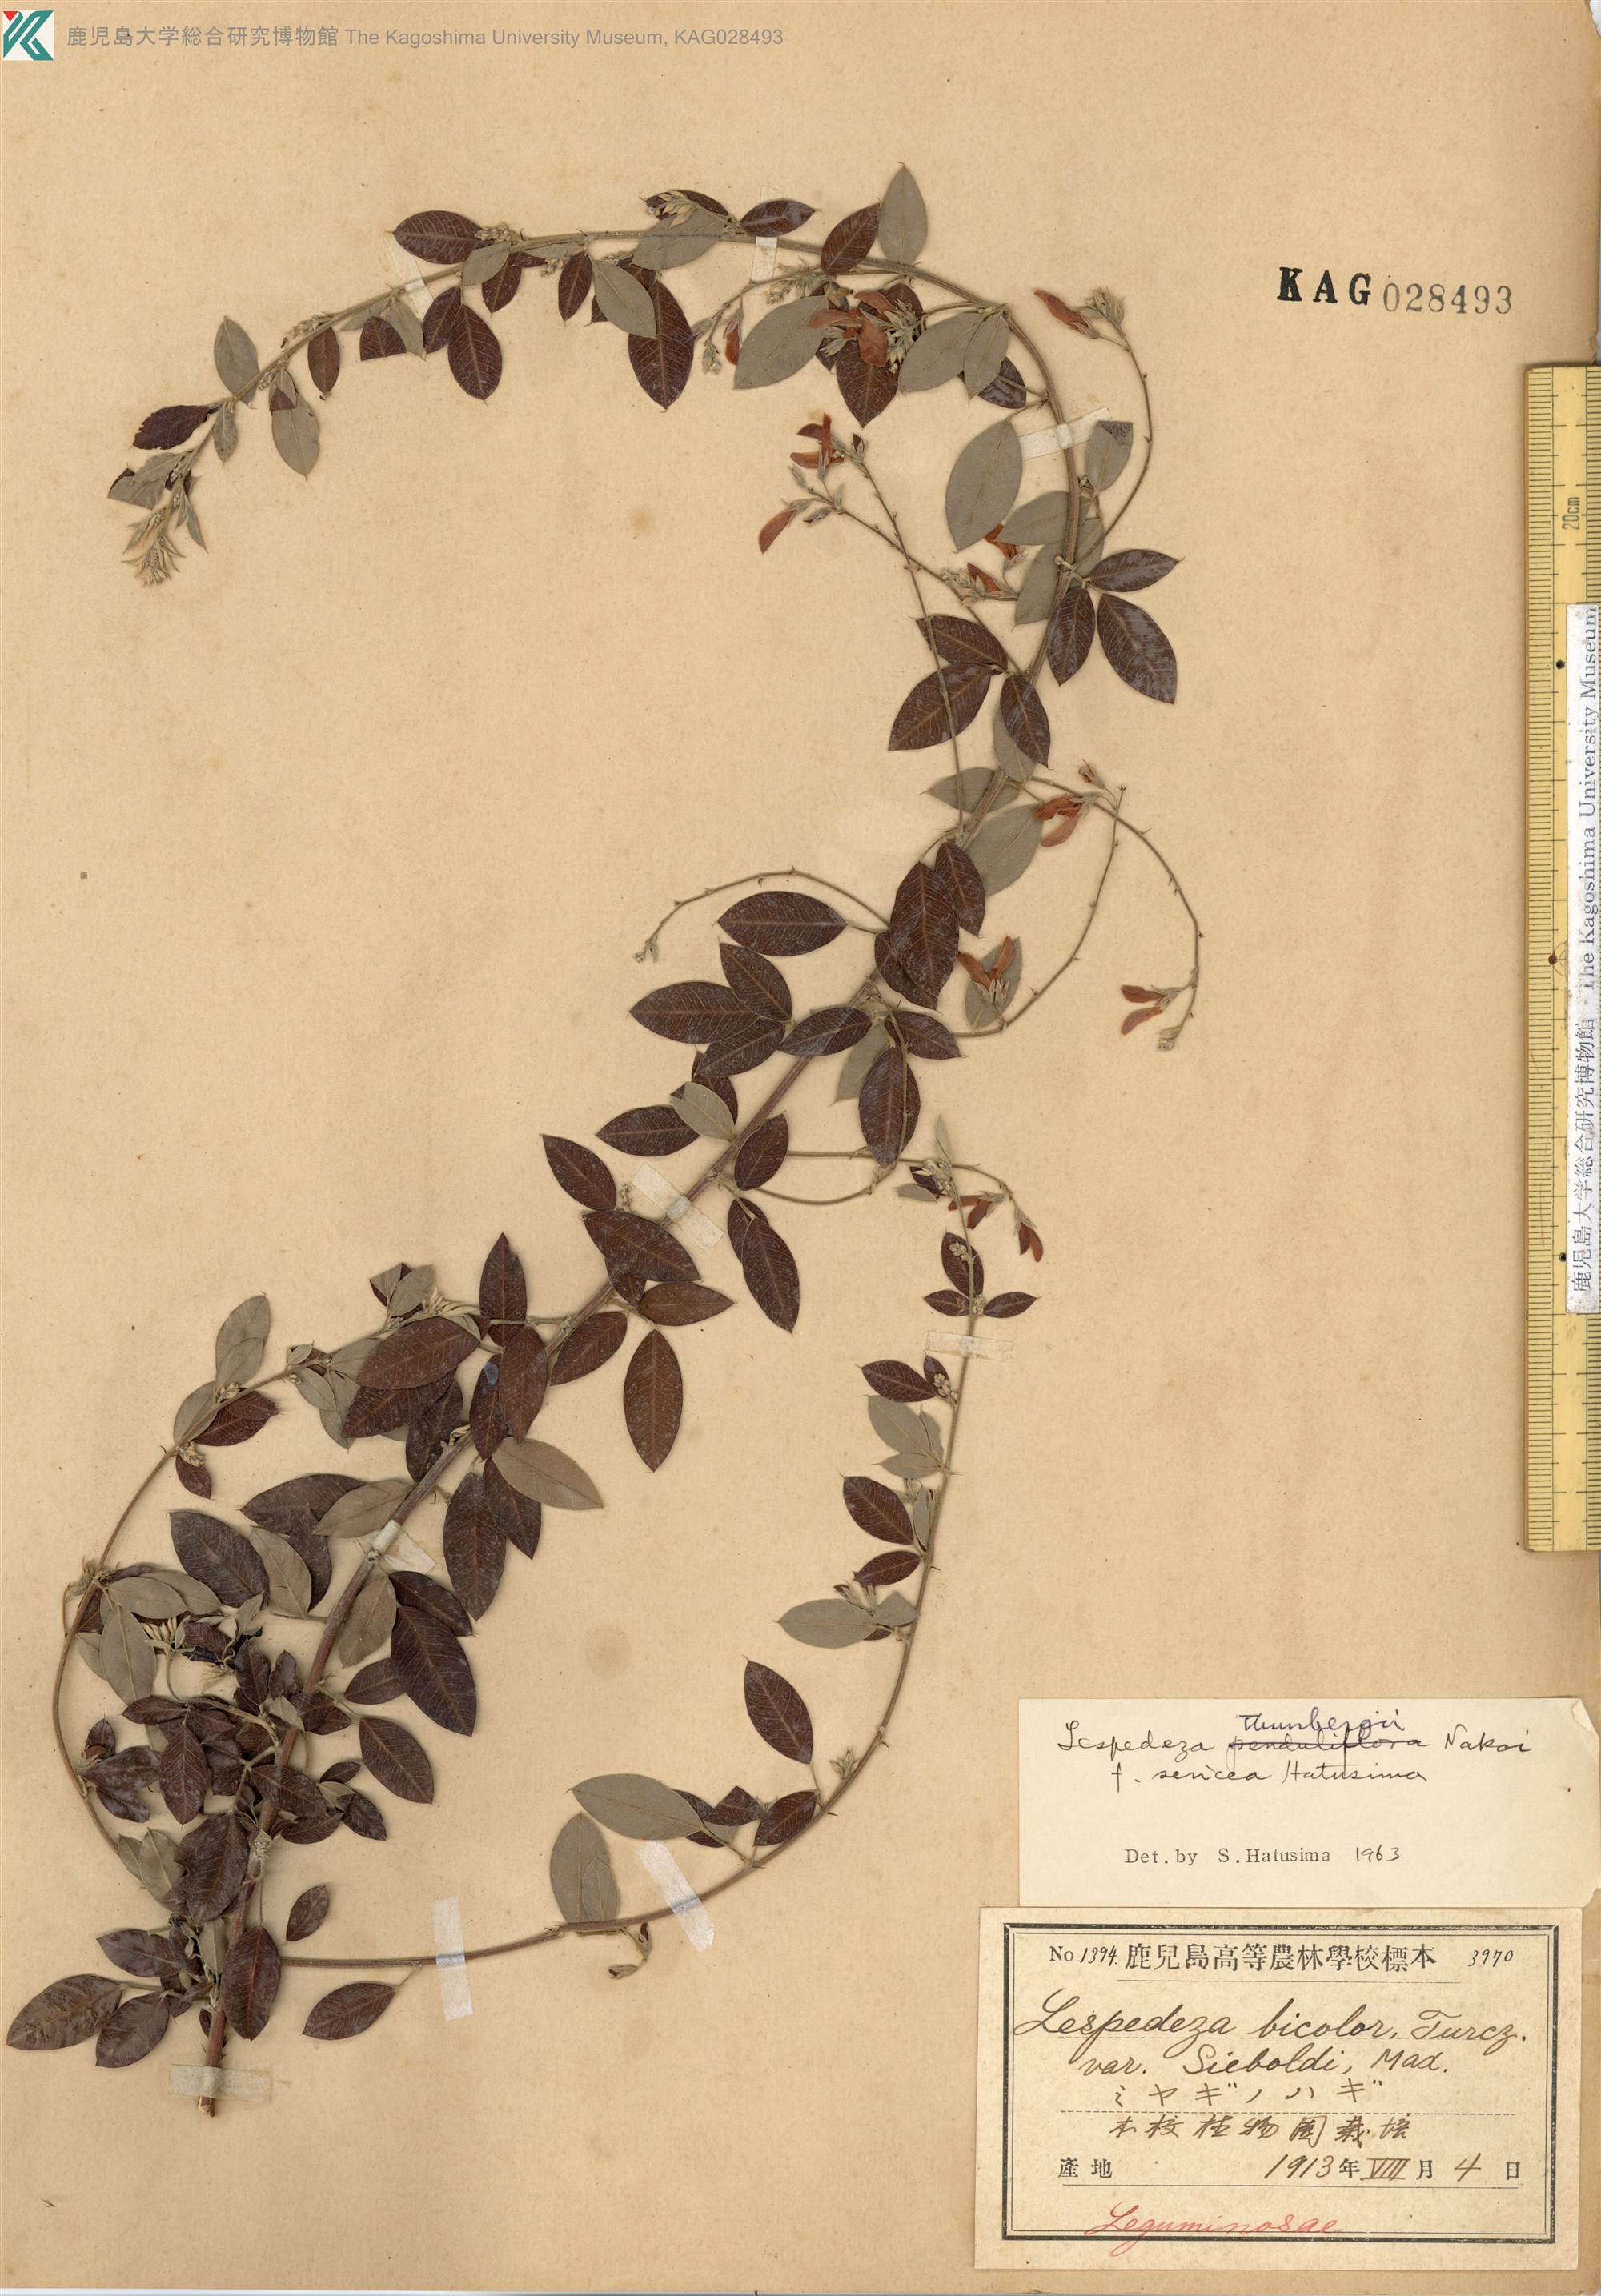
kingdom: Plantae
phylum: Tracheophyta
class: Magnoliopsida
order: Fabales
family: Fabaceae
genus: Lespedeza
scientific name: Lespedeza thunbergii
